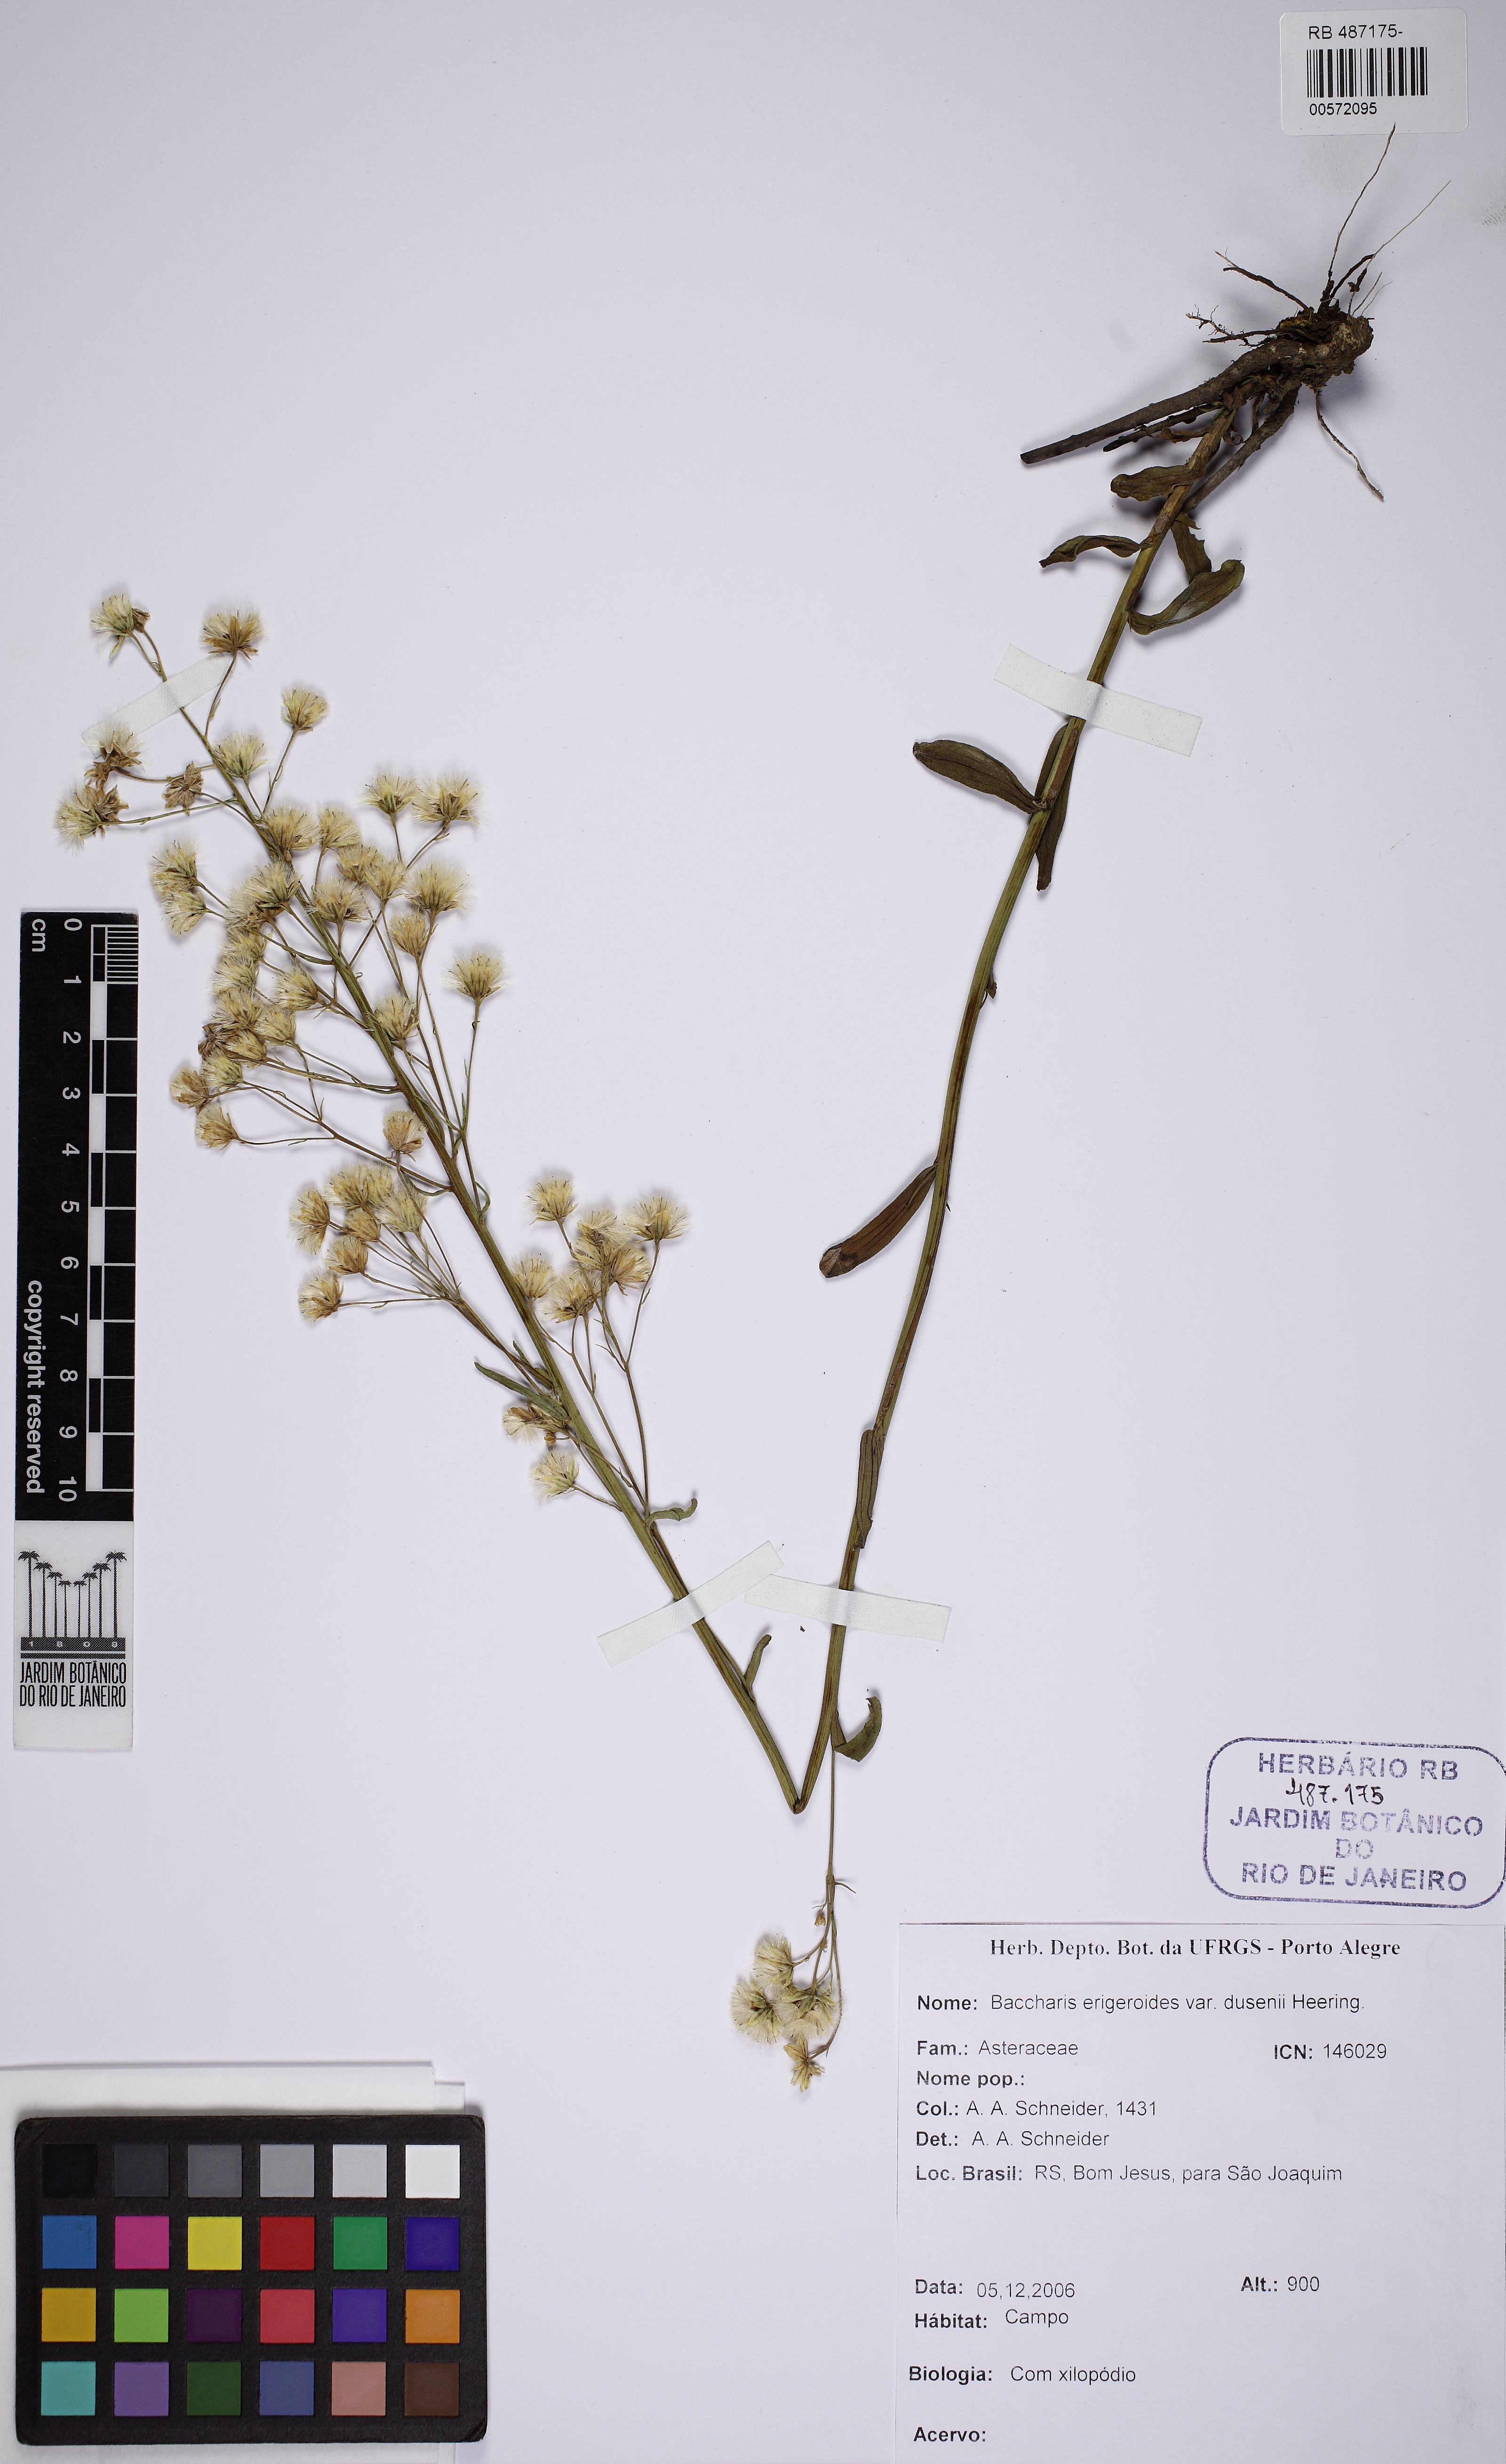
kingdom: Plantae
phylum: Tracheophyta
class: Magnoliopsida
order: Asterales
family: Asteraceae
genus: Baccharis
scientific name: Baccharis erigeroides
